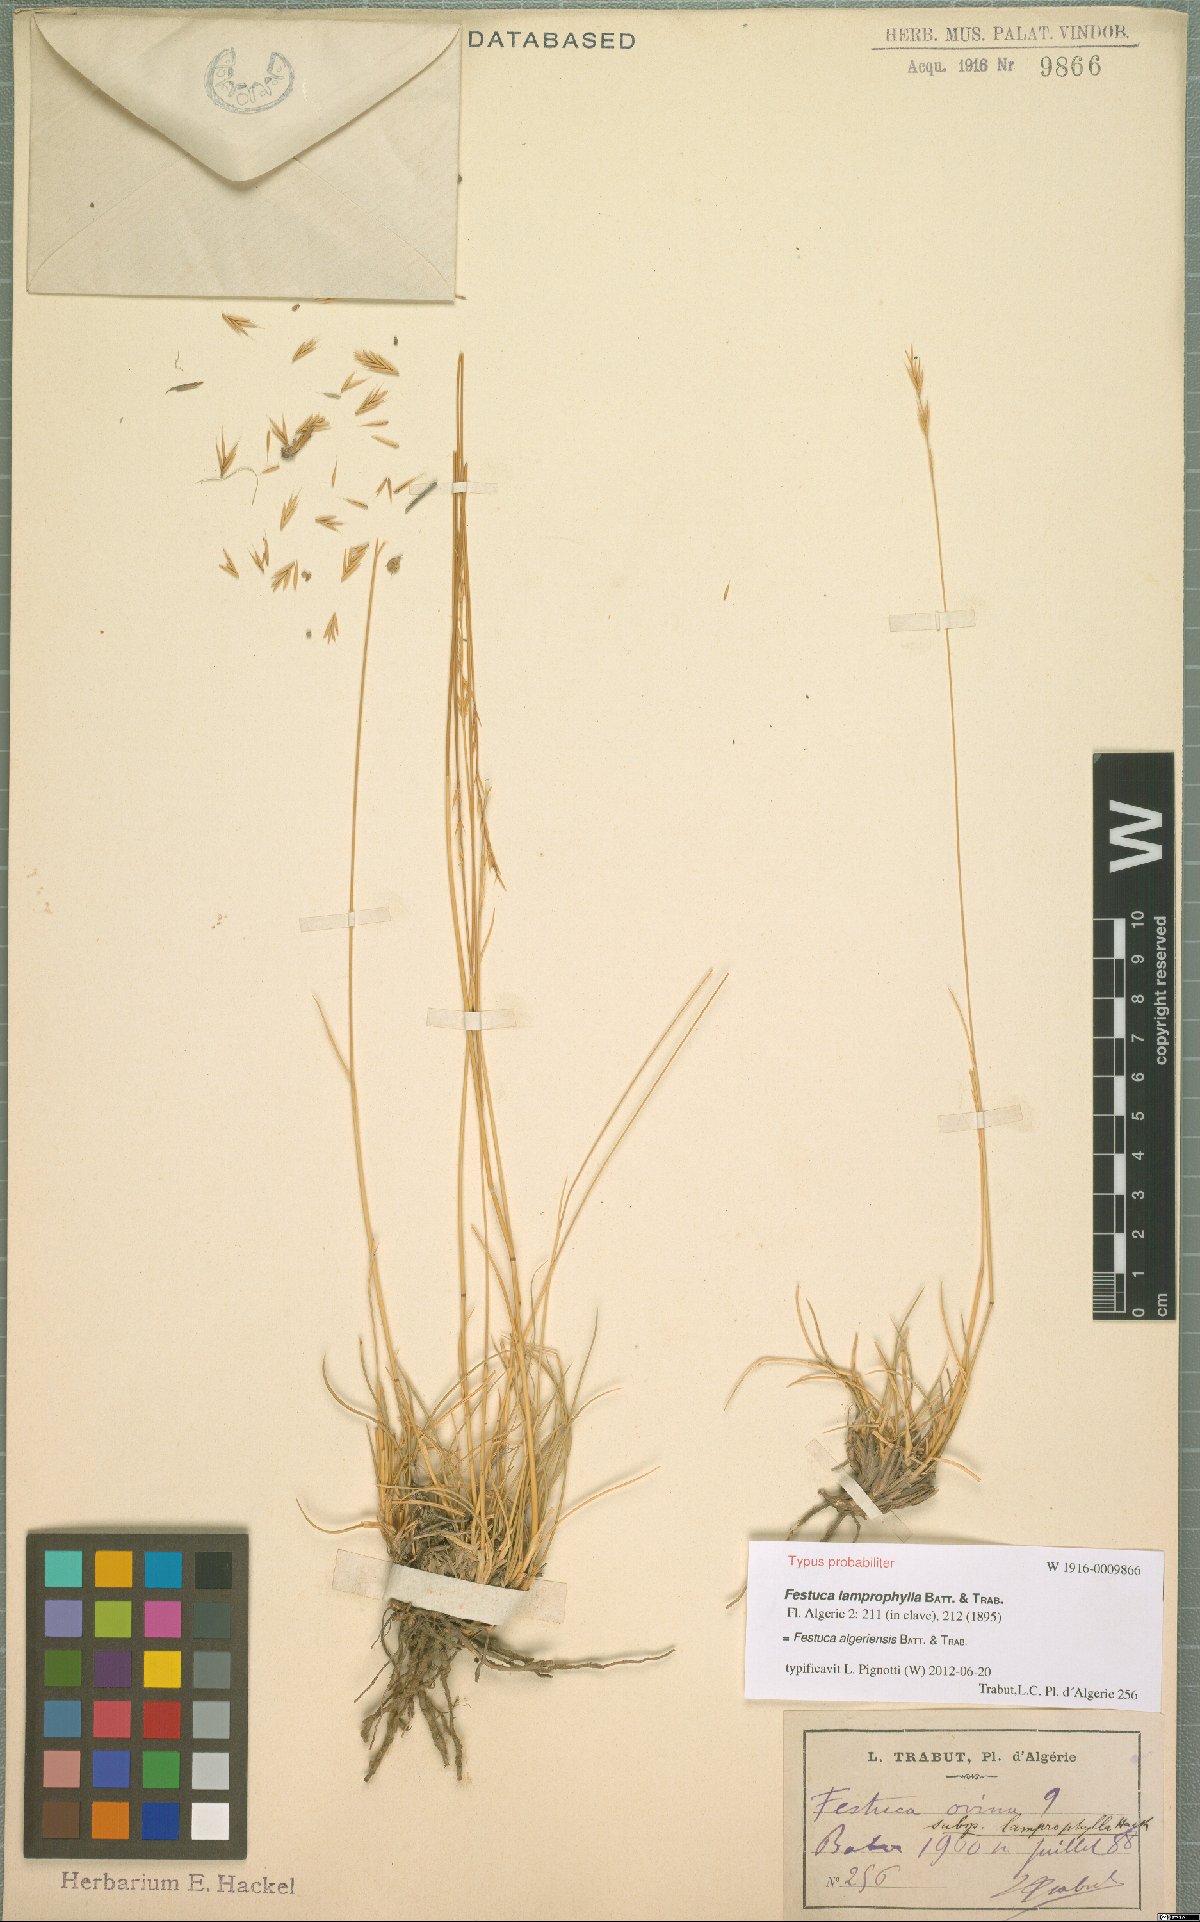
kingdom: Plantae
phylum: Tracheophyta
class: Liliopsida
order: Poales
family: Poaceae
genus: Festuca
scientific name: Festuca algeriensis
